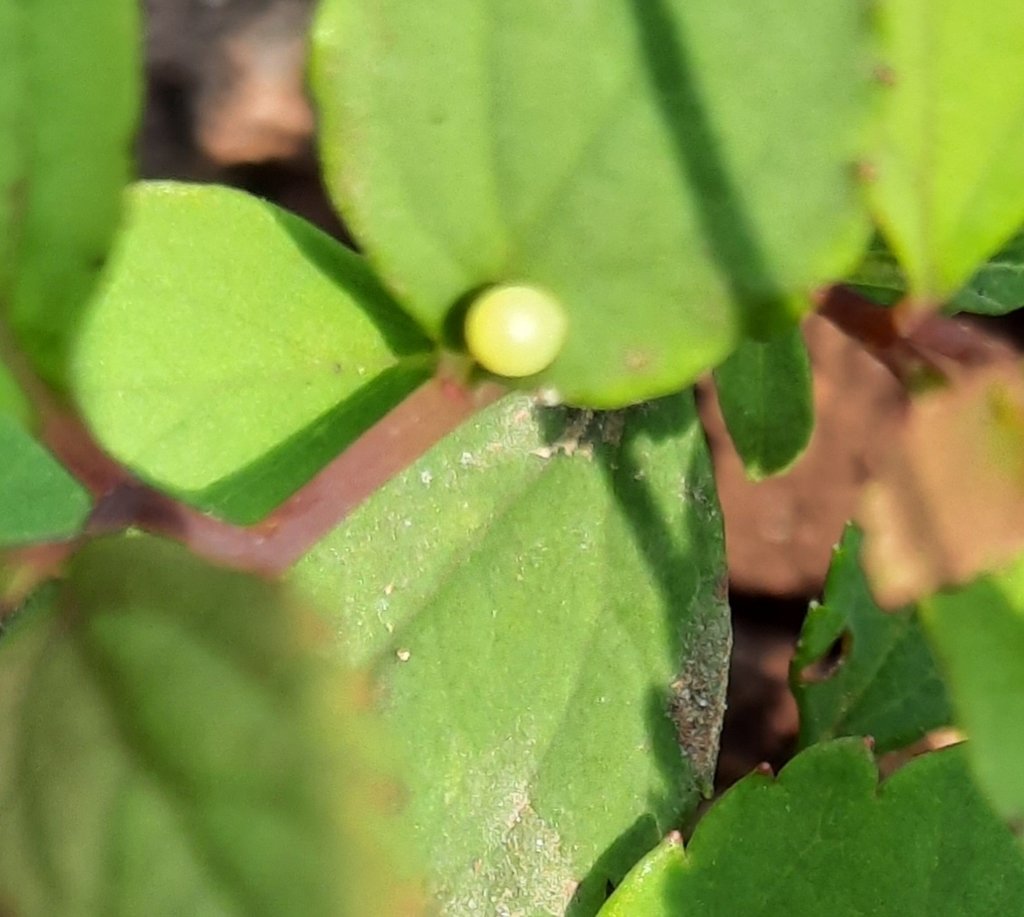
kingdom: Animalia
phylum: Arthropoda
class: Insecta
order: Lepidoptera
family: Papilionidae
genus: Papilio
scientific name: Papilio polyxenes
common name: Black Swallowtail
